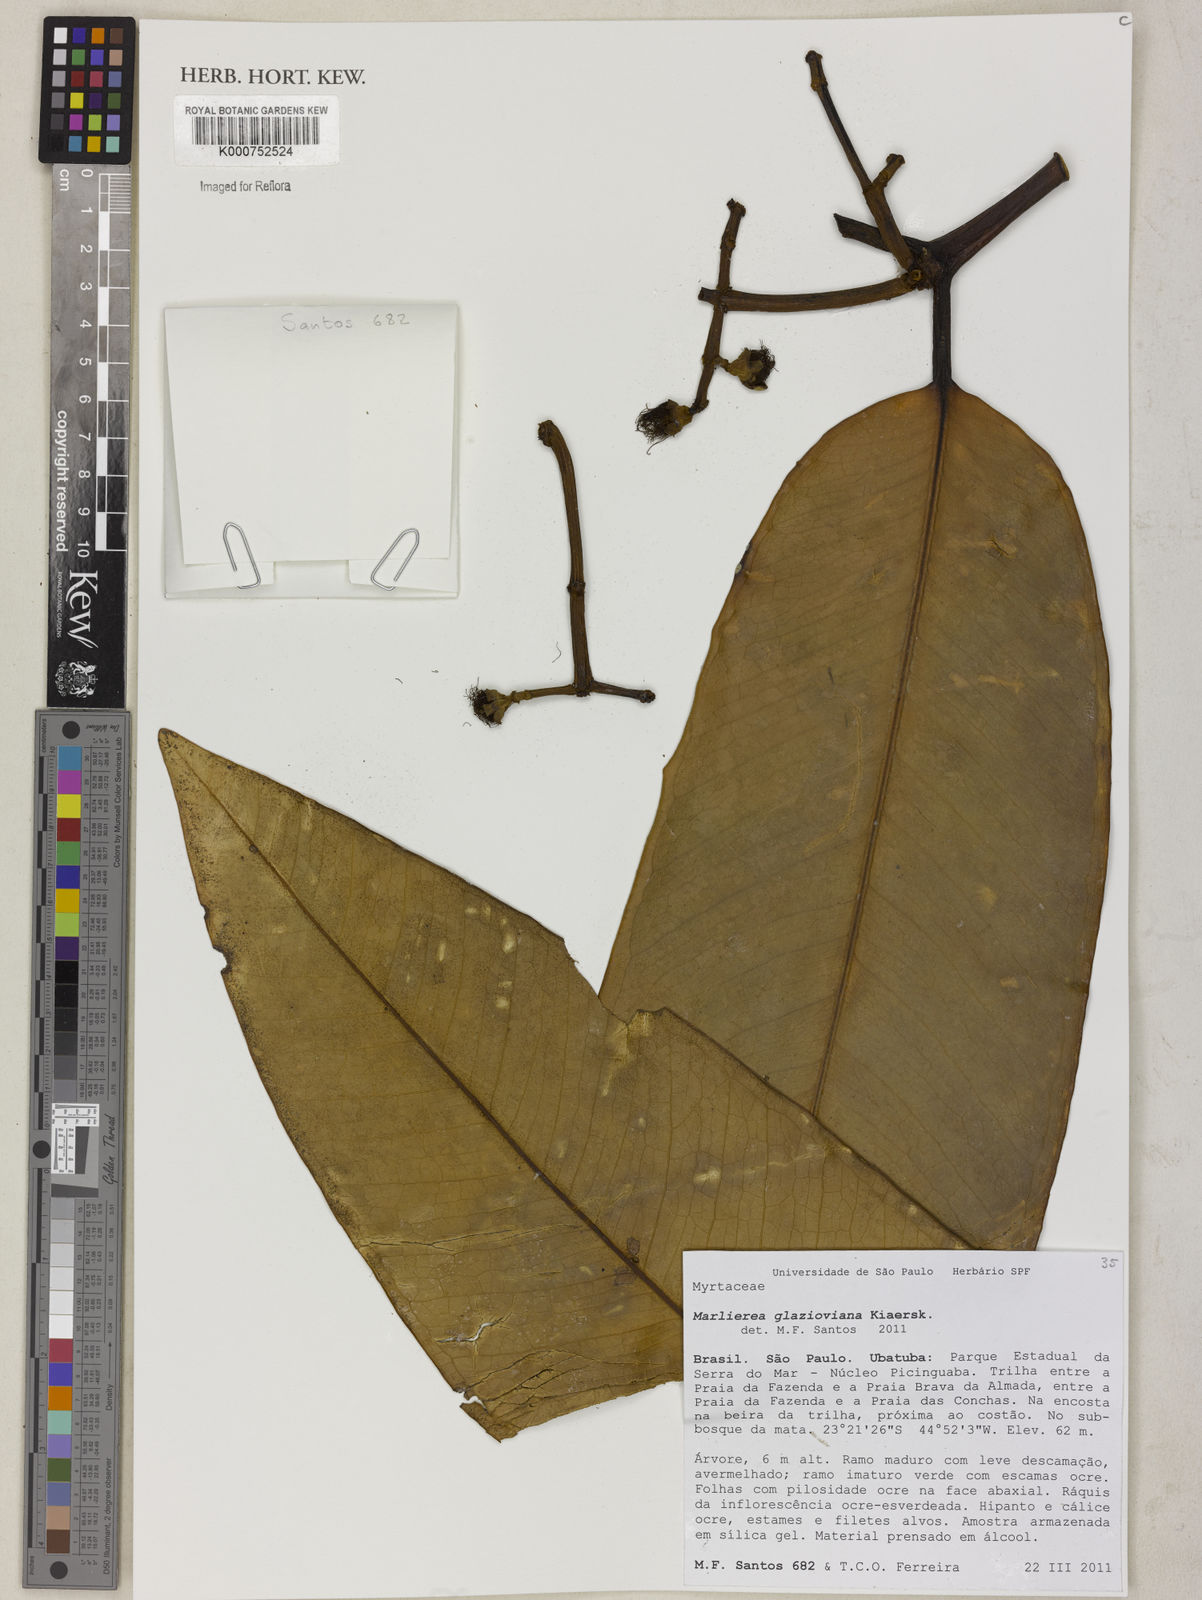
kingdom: Plantae
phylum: Tracheophyta
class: Magnoliopsida
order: Myrtales
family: Myrtaceae
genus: Myrcia
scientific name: Myrcia insigniflora
